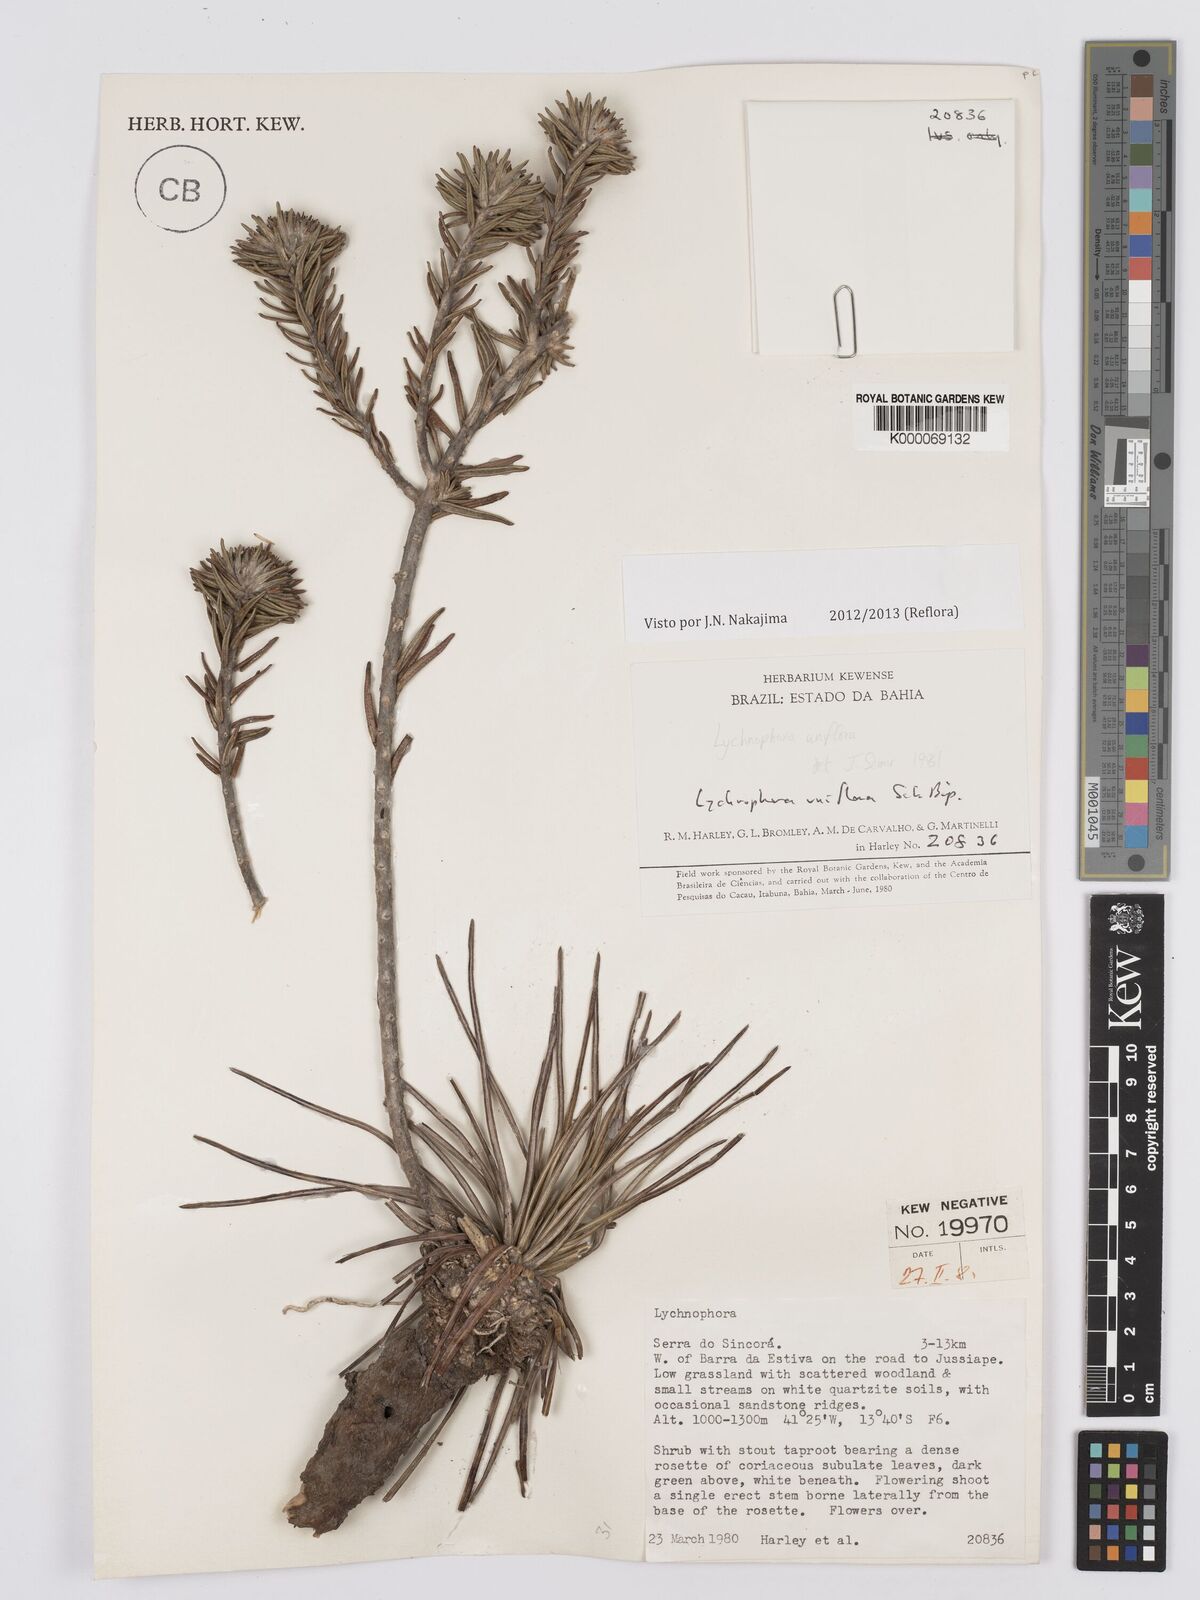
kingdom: Plantae
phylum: Tracheophyta
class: Magnoliopsida
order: Asterales
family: Asteraceae
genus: Lychnophora
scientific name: Lychnophora uniflora
